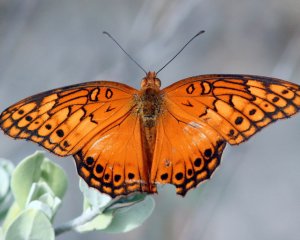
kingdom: Animalia
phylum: Arthropoda
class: Insecta
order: Lepidoptera
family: Nymphalidae
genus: Euptoieta
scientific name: Euptoieta hegesia
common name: Mexican Fritillary
